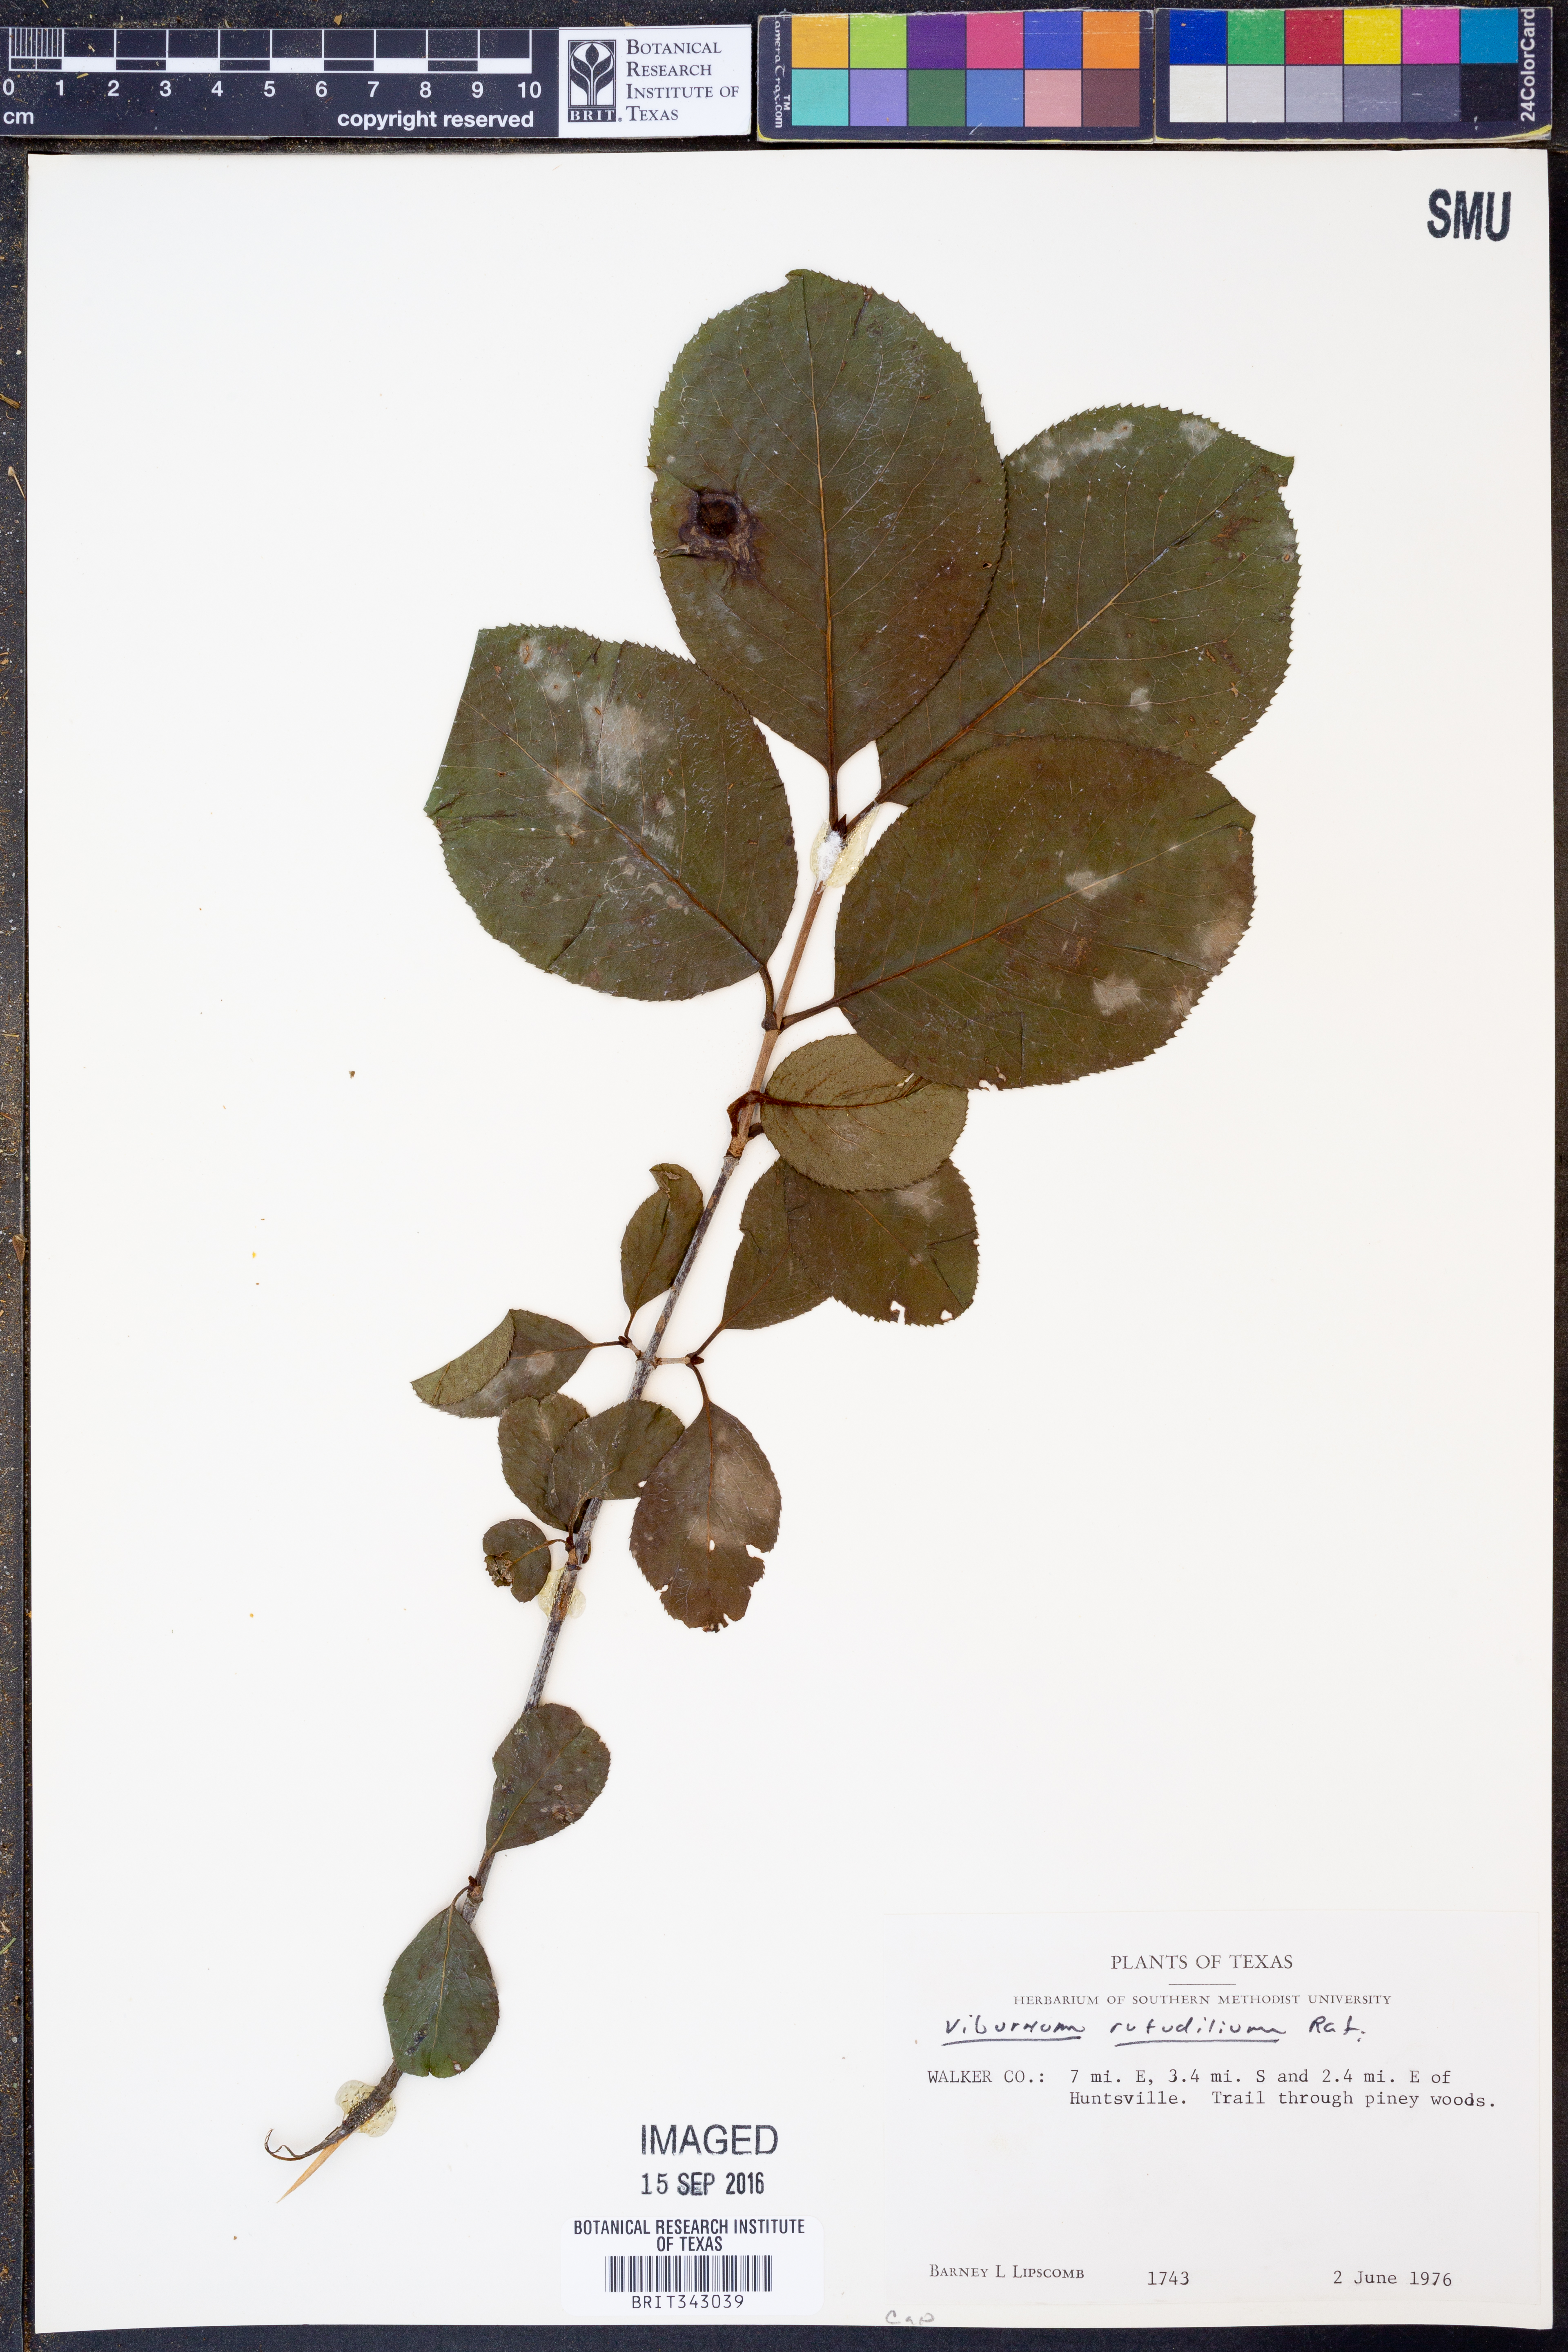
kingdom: Plantae
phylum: Tracheophyta
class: Magnoliopsida
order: Dipsacales
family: Viburnaceae
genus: Viburnum
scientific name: Viburnum rufidulum
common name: Blue haw
